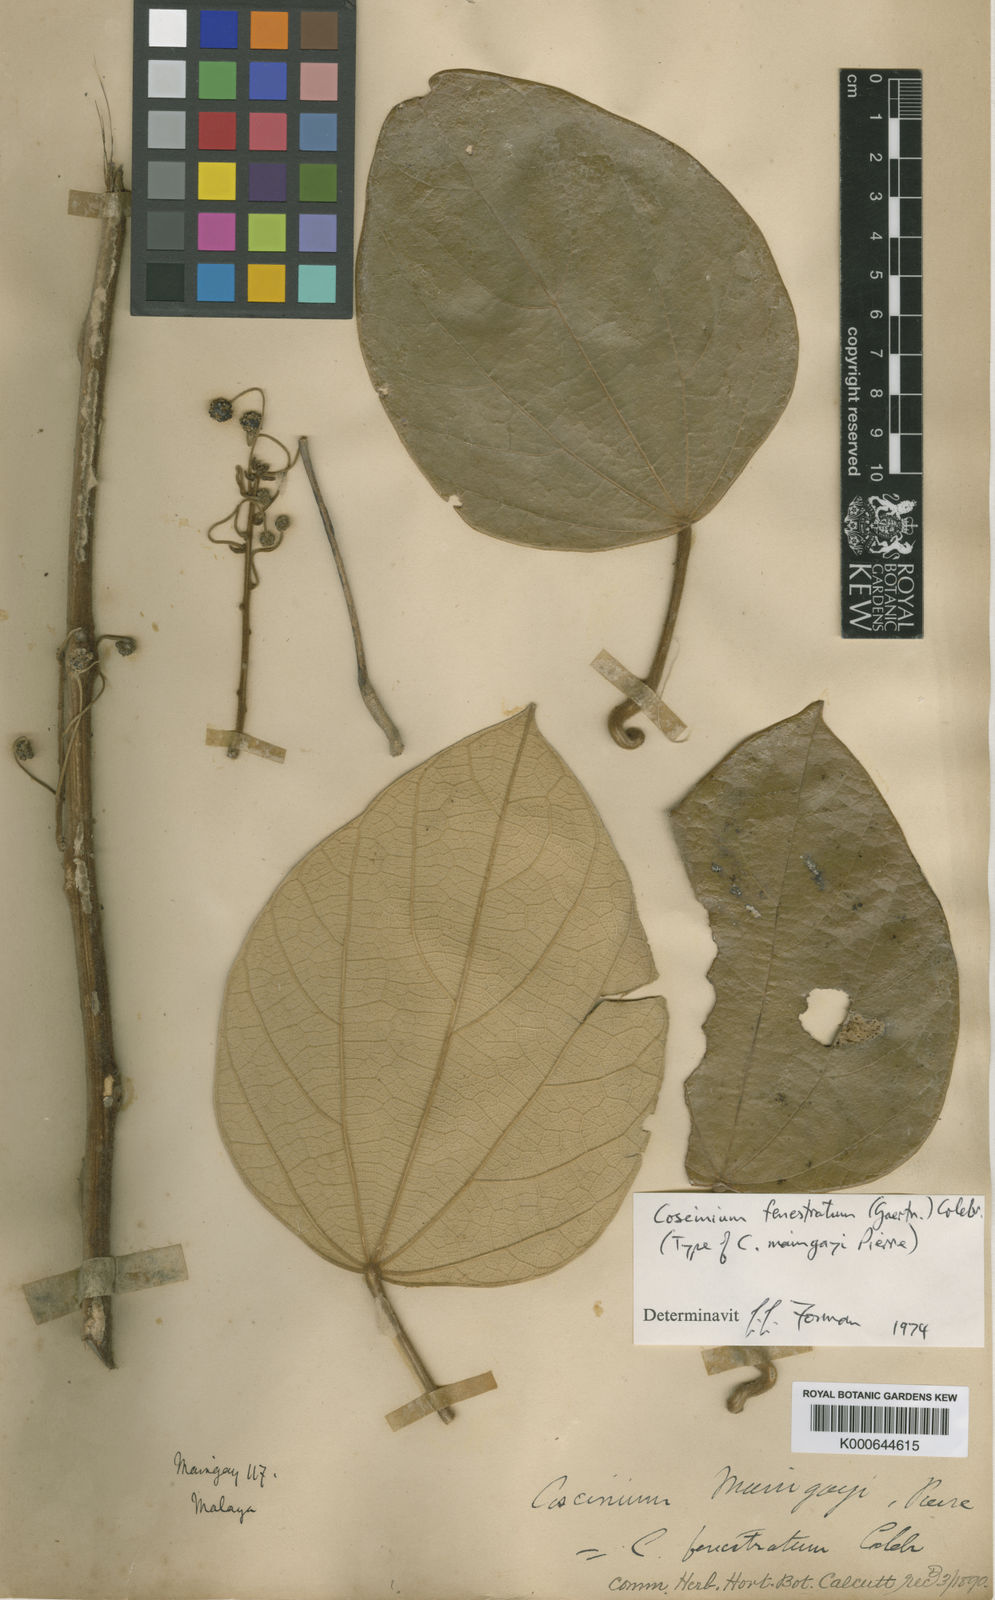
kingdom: Plantae
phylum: Tracheophyta
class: Magnoliopsida
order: Ranunculales
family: Menispermaceae
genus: Coscinium
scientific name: Coscinium fenestratum
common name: False calumba
